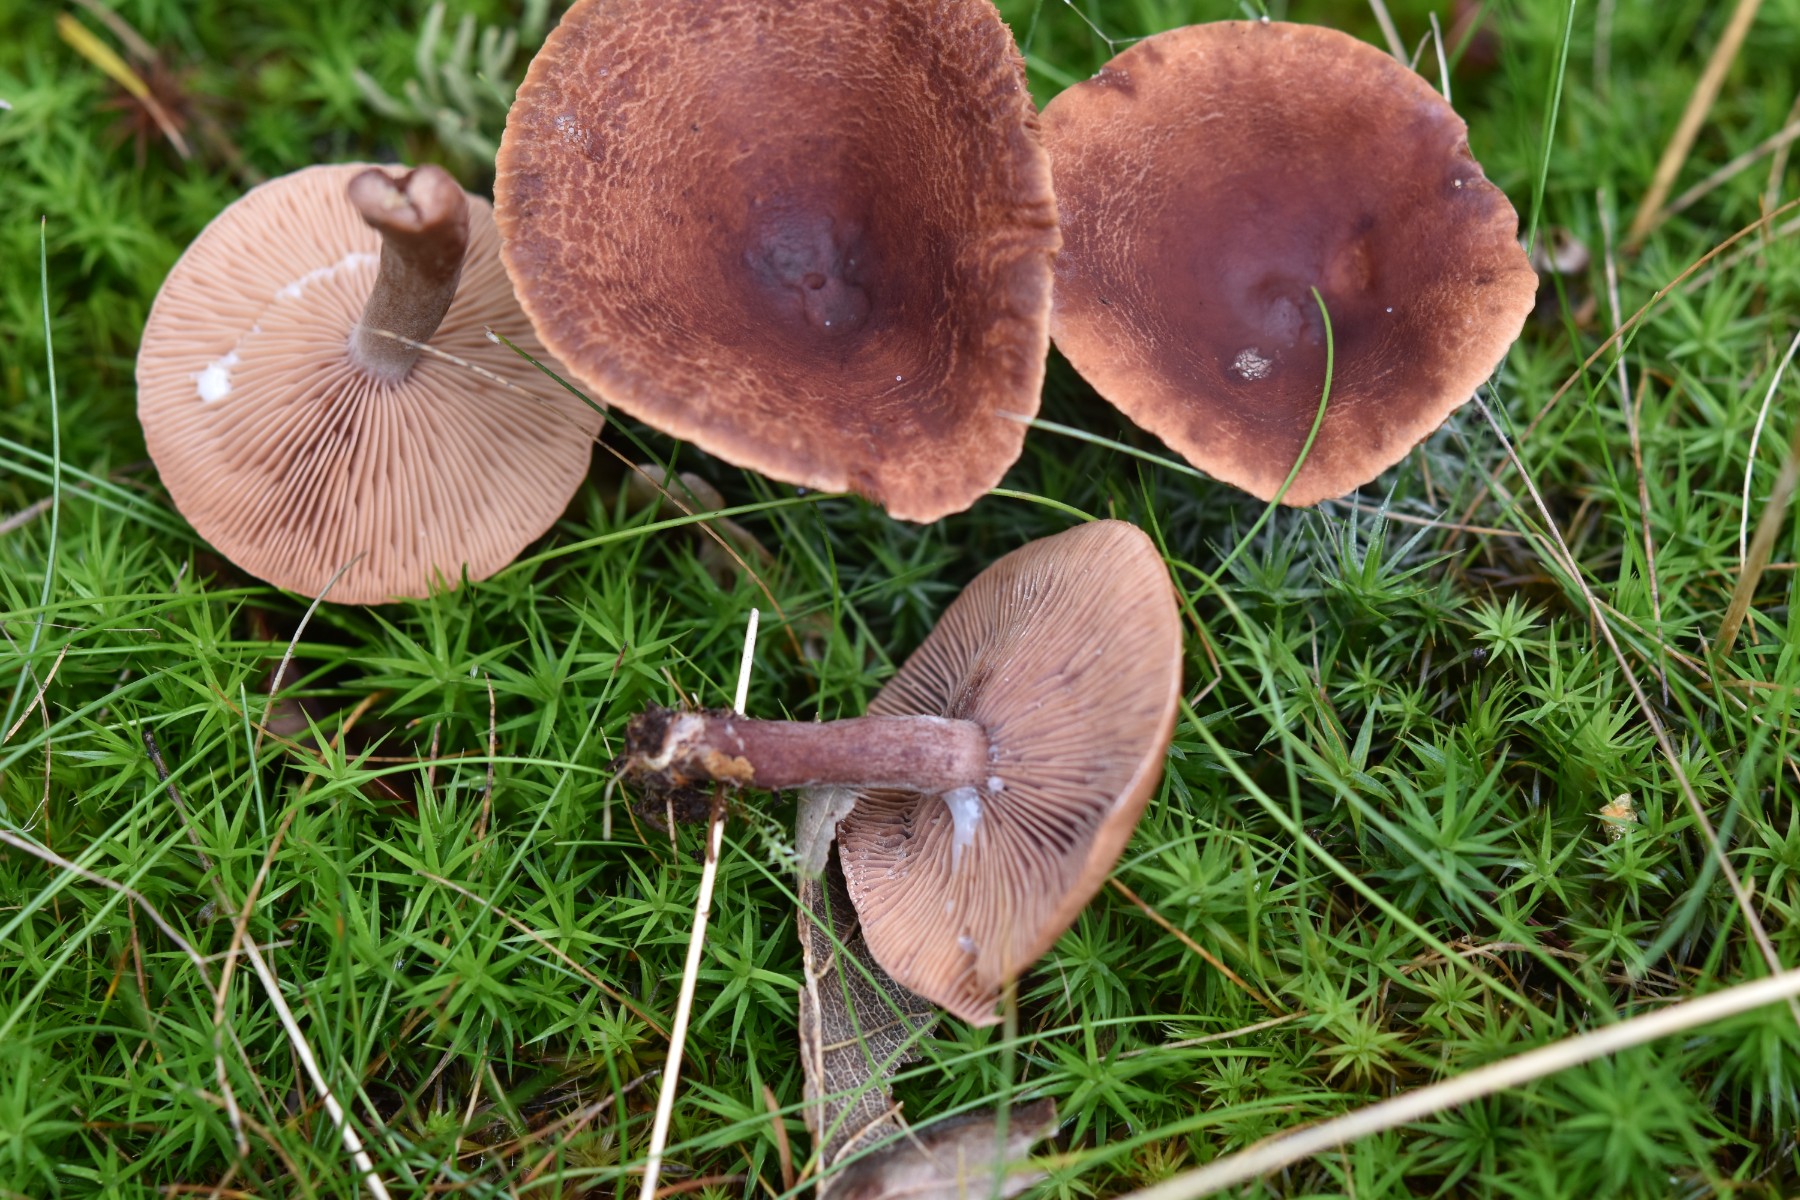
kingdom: Fungi
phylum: Basidiomycota
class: Agaricomycetes
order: Russulales
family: Russulaceae
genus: Lactarius
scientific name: Lactarius camphoratus
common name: kamfer-mælkehat
